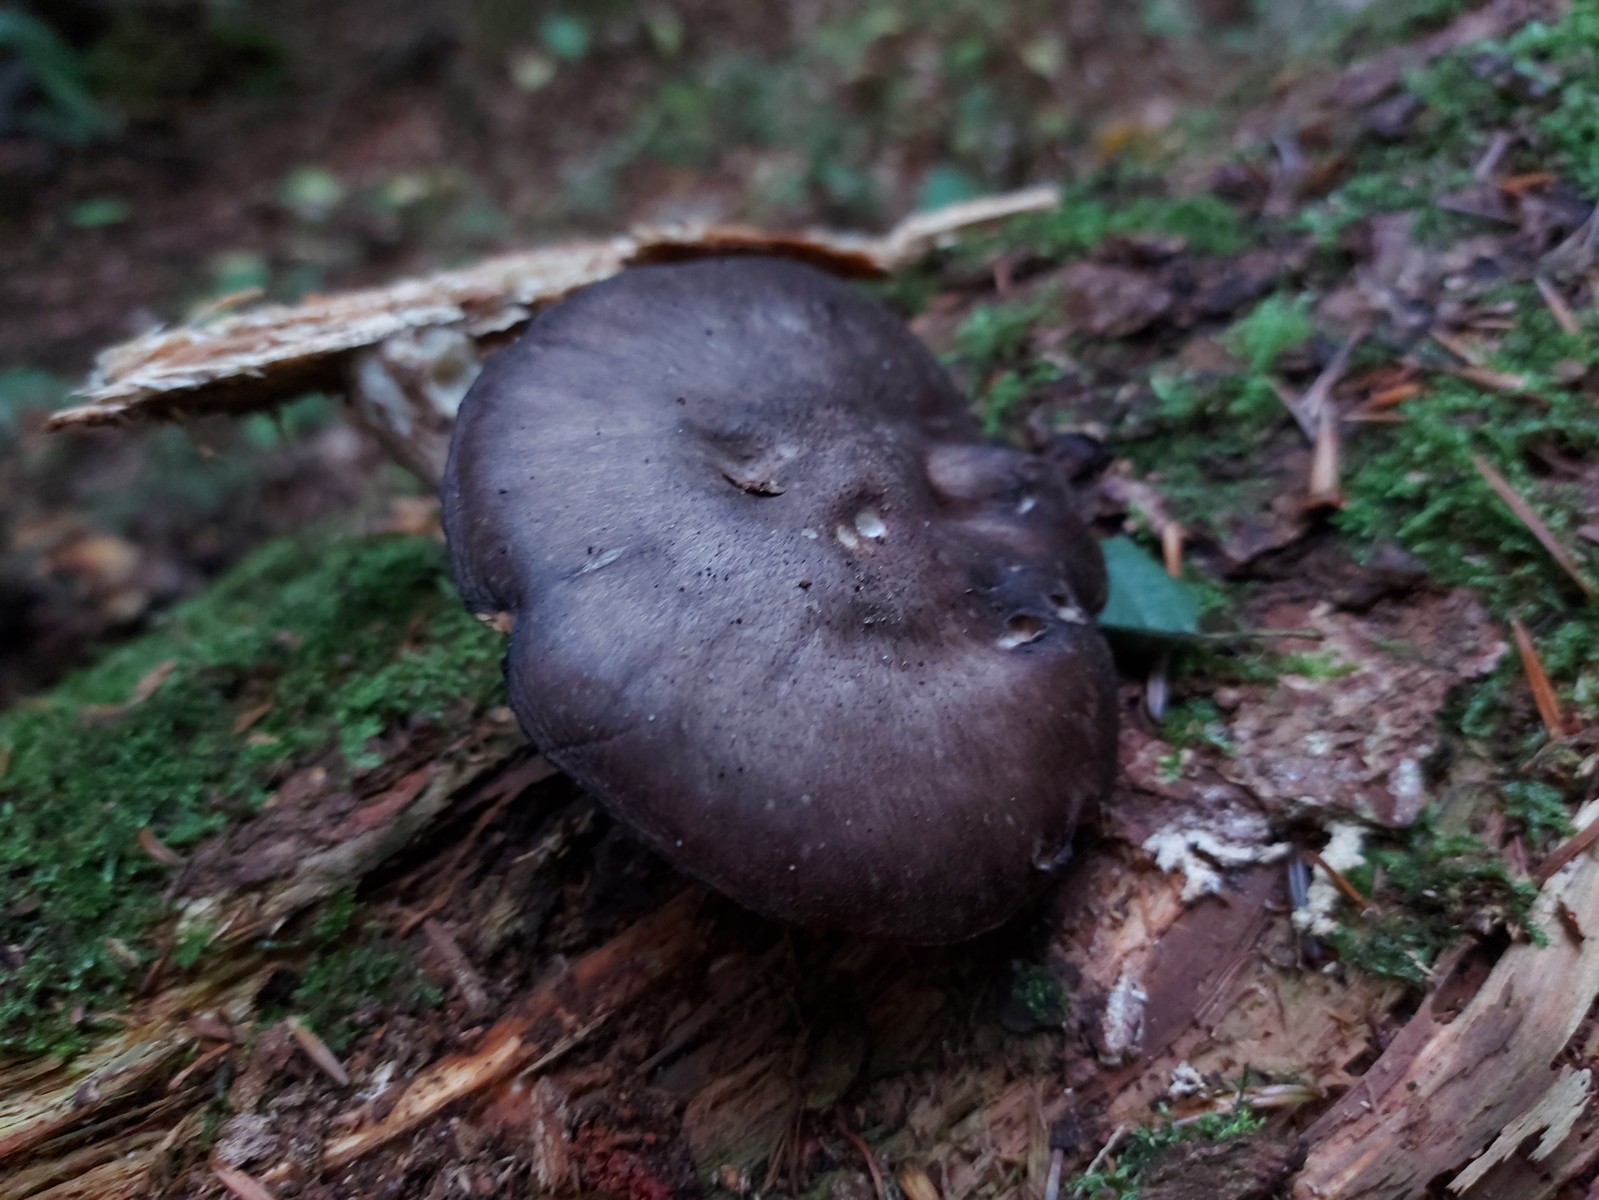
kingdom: Fungi
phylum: Basidiomycota
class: Agaricomycetes
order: Agaricales
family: Pluteaceae
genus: Pluteus
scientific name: Pluteus atromarginatus
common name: sortrandet skærmhat
